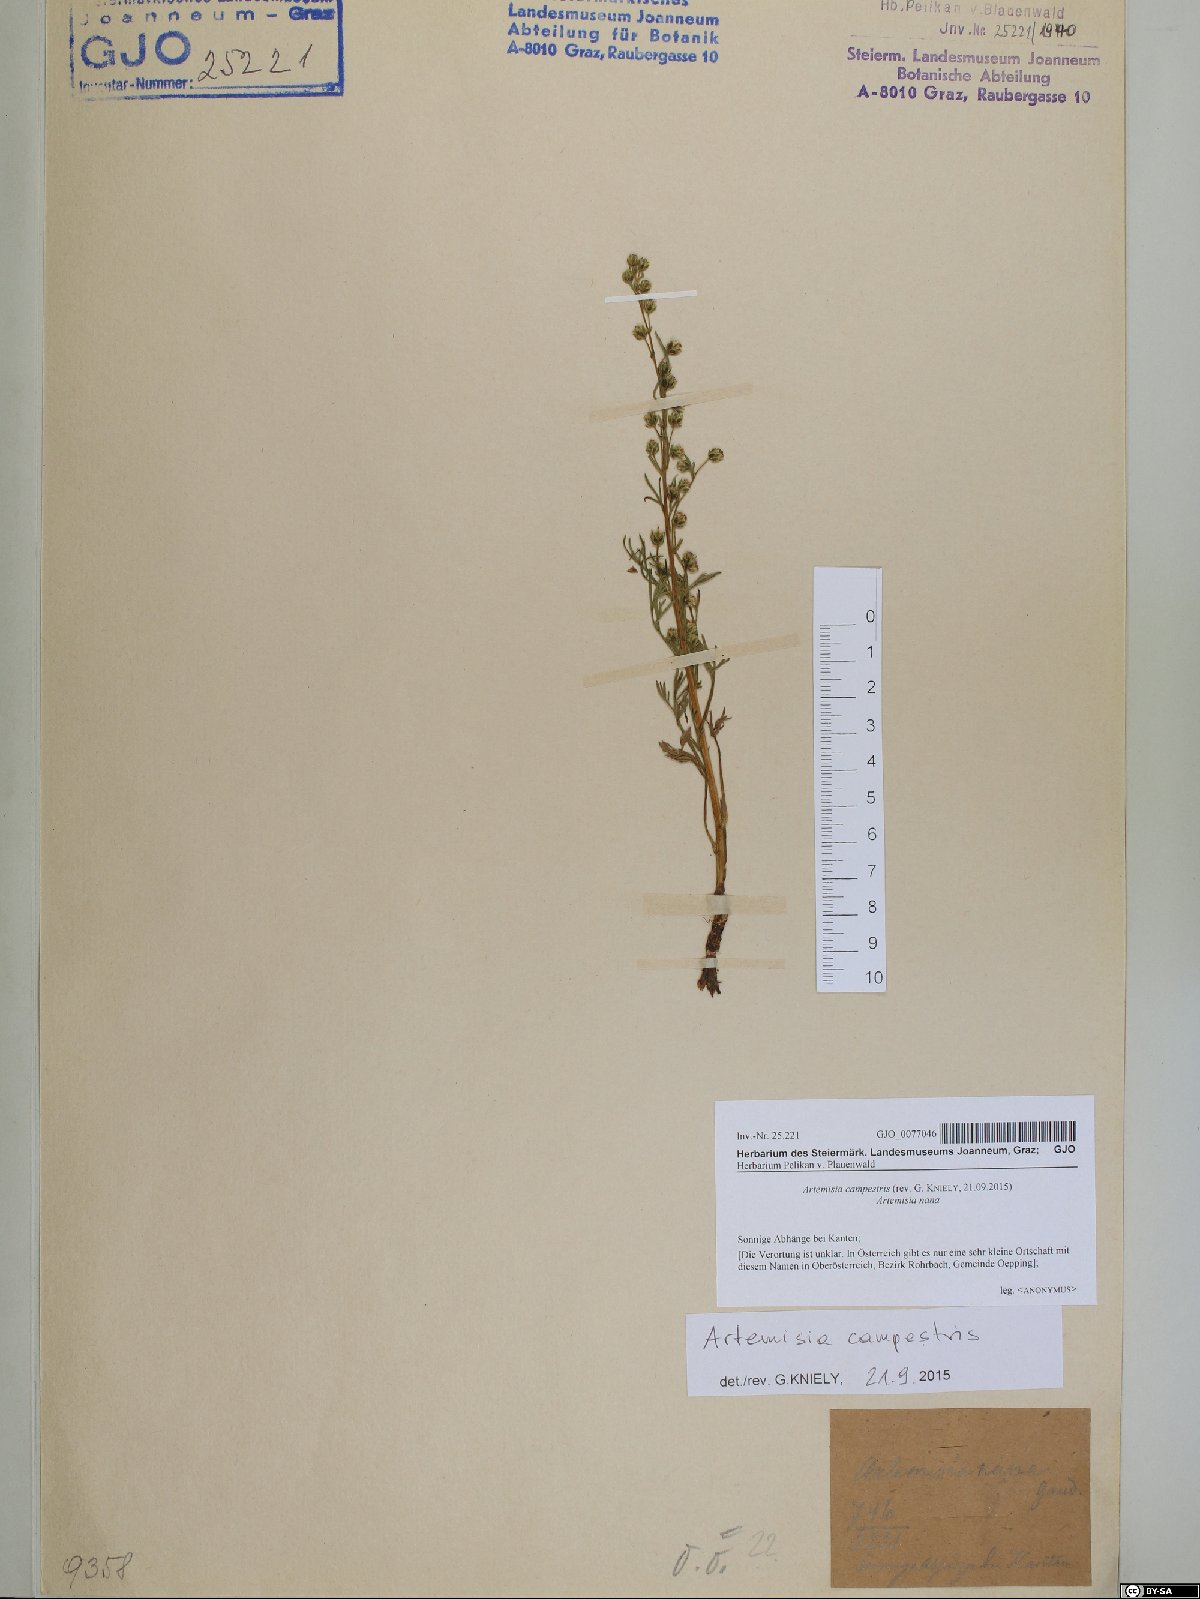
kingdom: Plantae
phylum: Tracheophyta
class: Magnoliopsida
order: Asterales
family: Asteraceae
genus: Artemisia
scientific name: Artemisia campestris
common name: Field wormwood
